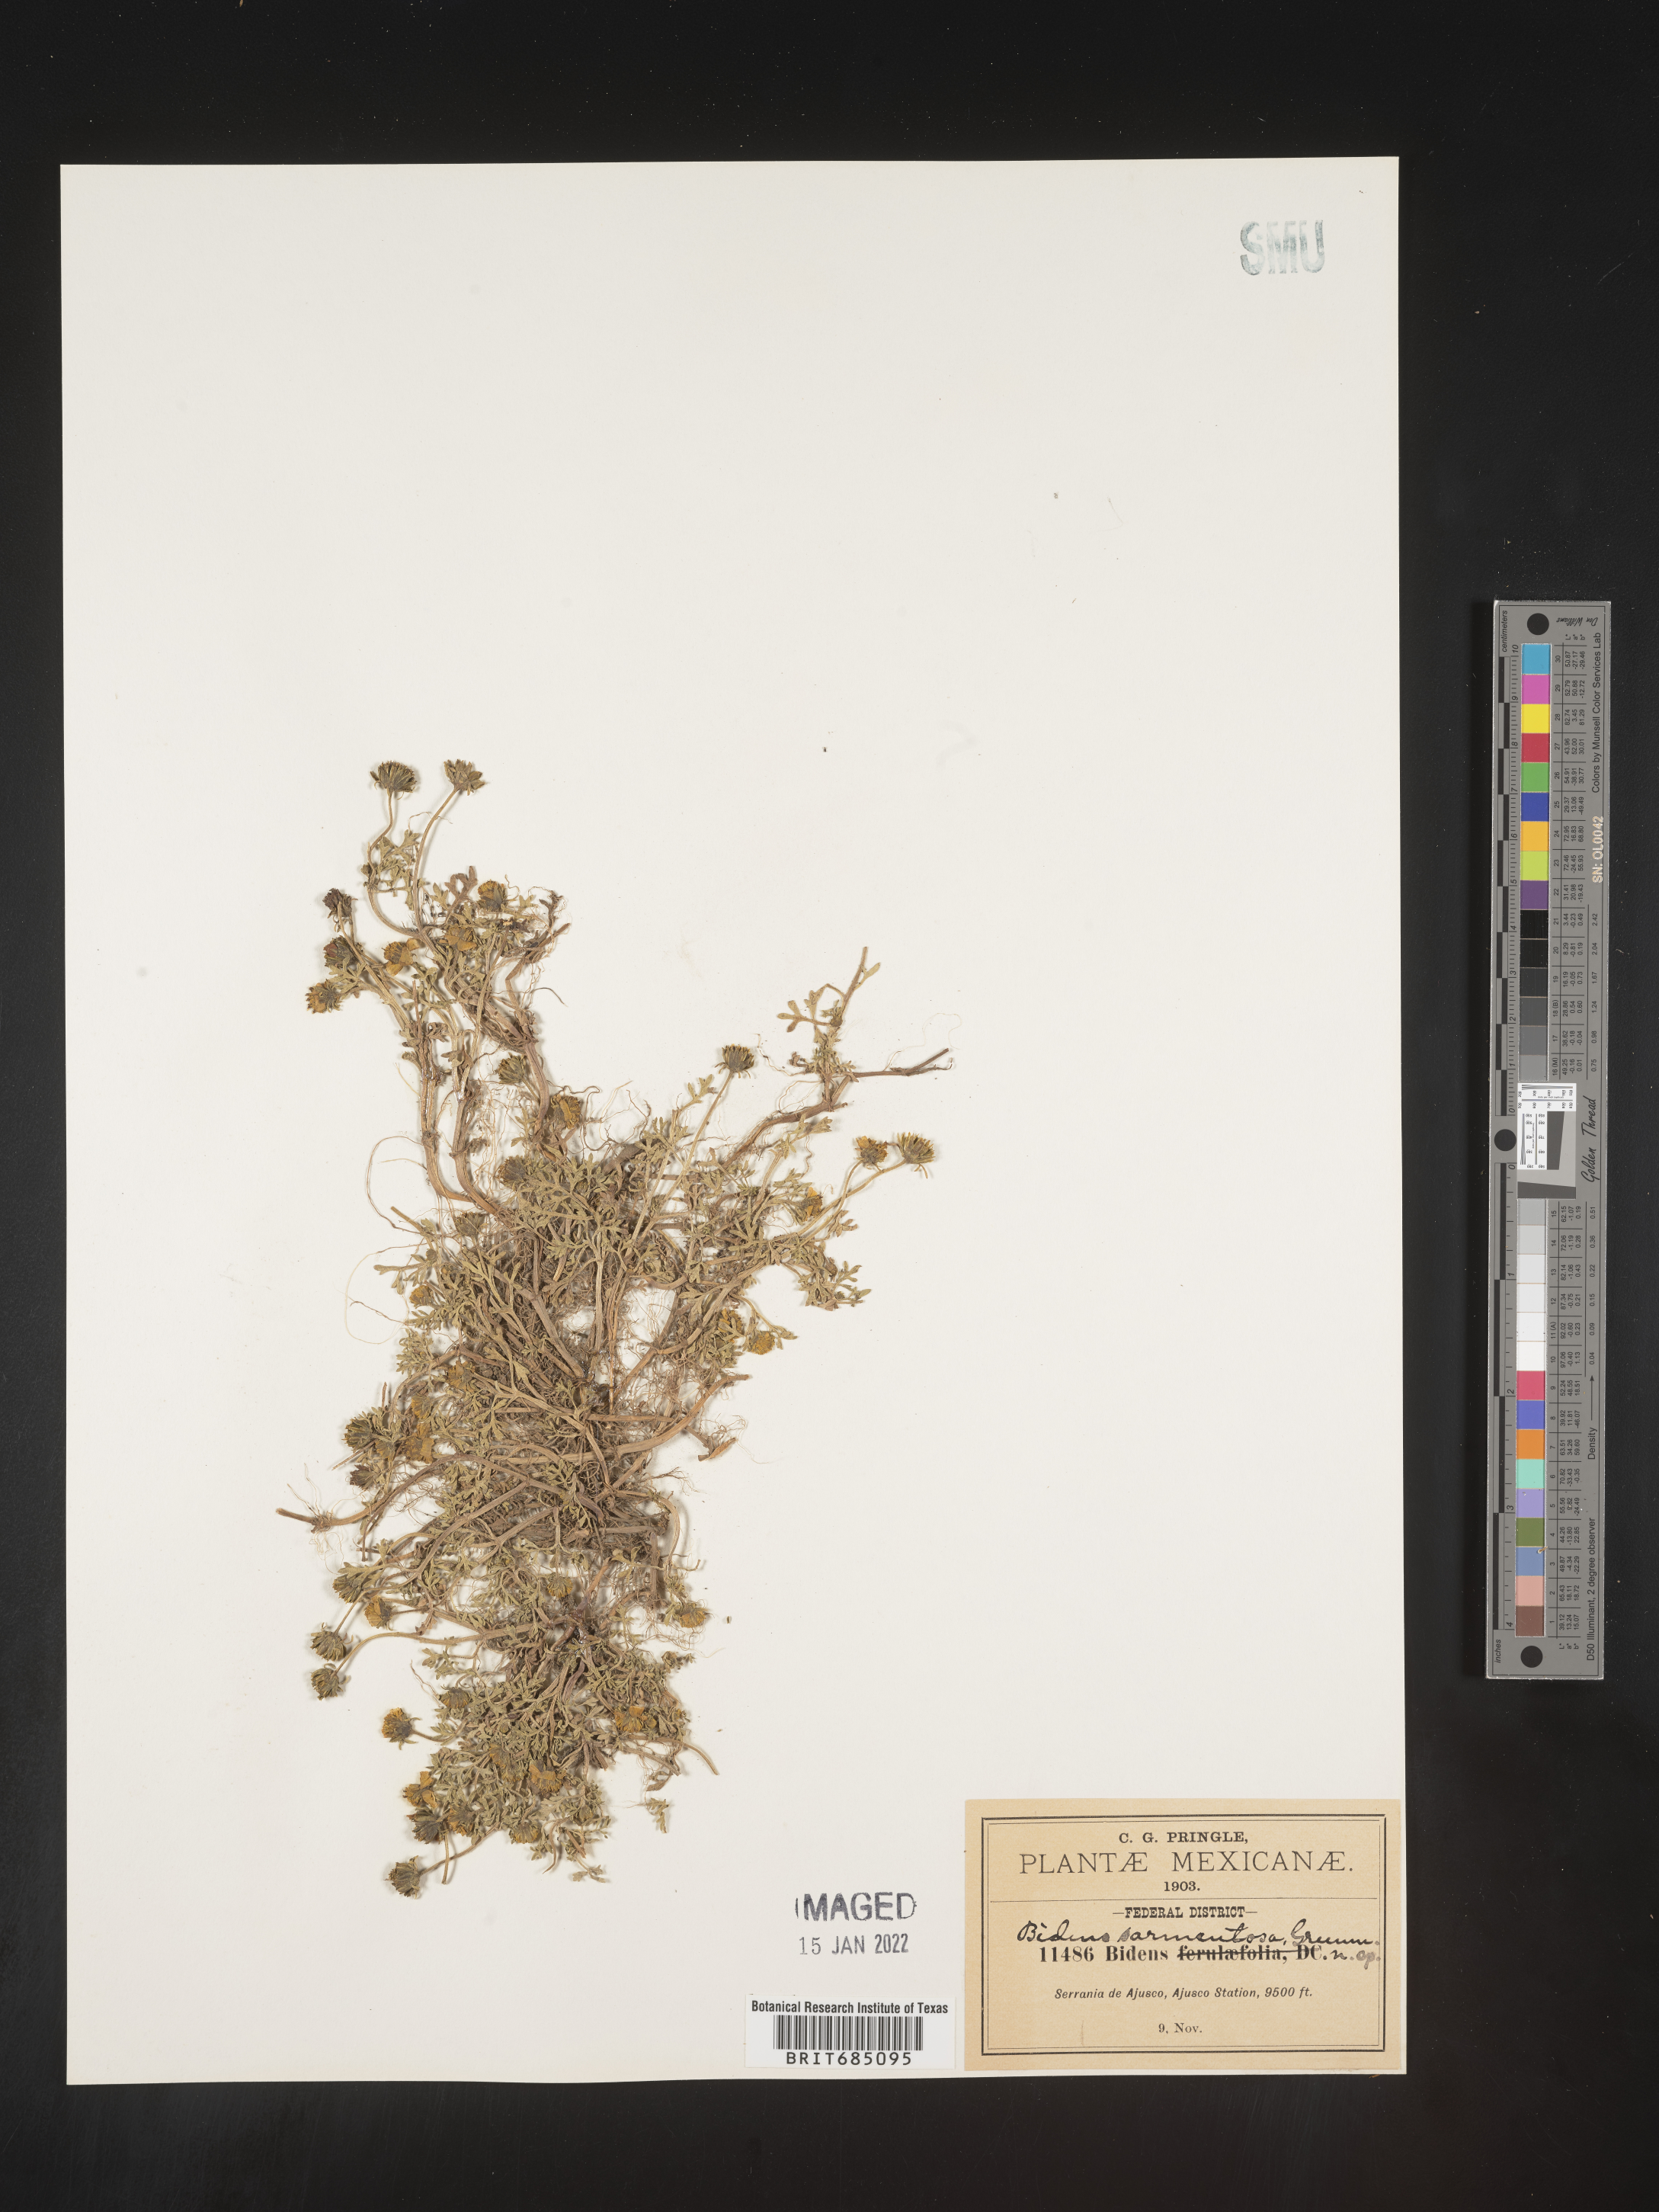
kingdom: Plantae
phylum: Tracheophyta
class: Magnoliopsida
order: Asterales
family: Asteraceae
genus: Bidens
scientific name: Bidens
